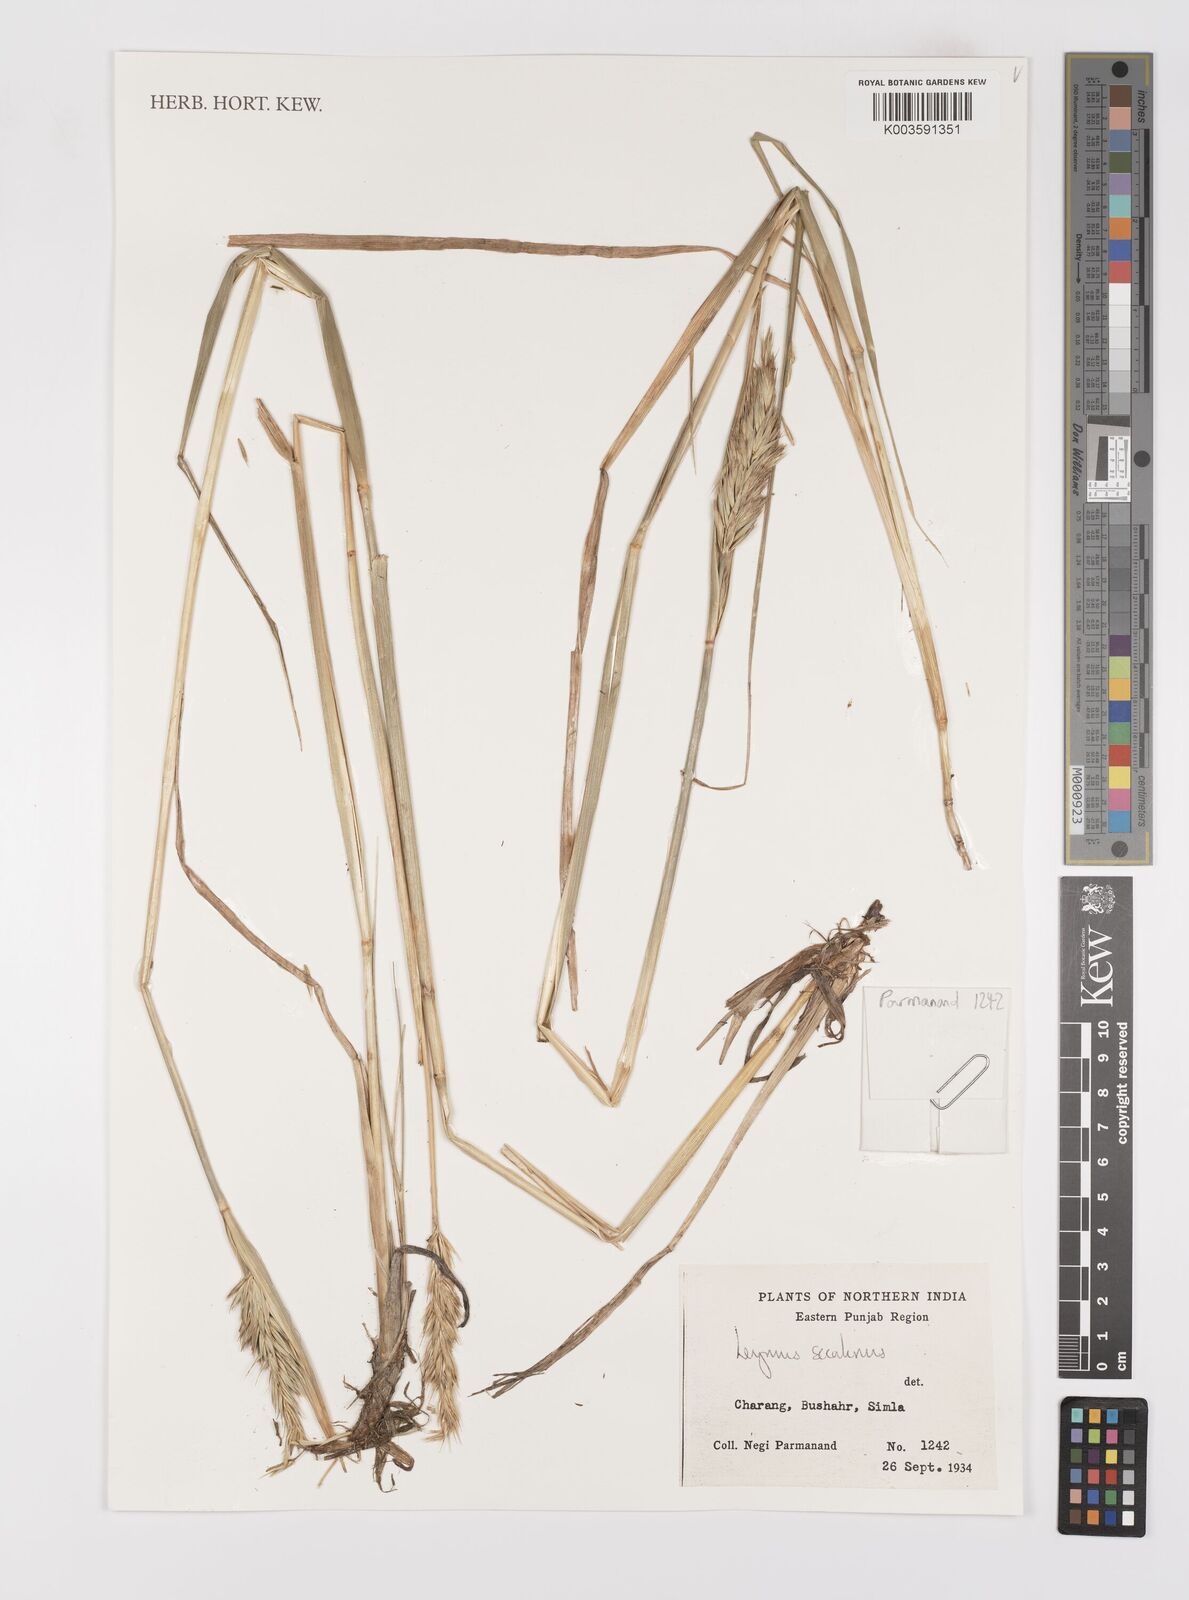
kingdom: Plantae
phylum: Tracheophyta
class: Liliopsida
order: Poales
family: Poaceae
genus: Leymus
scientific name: Leymus secalinus
